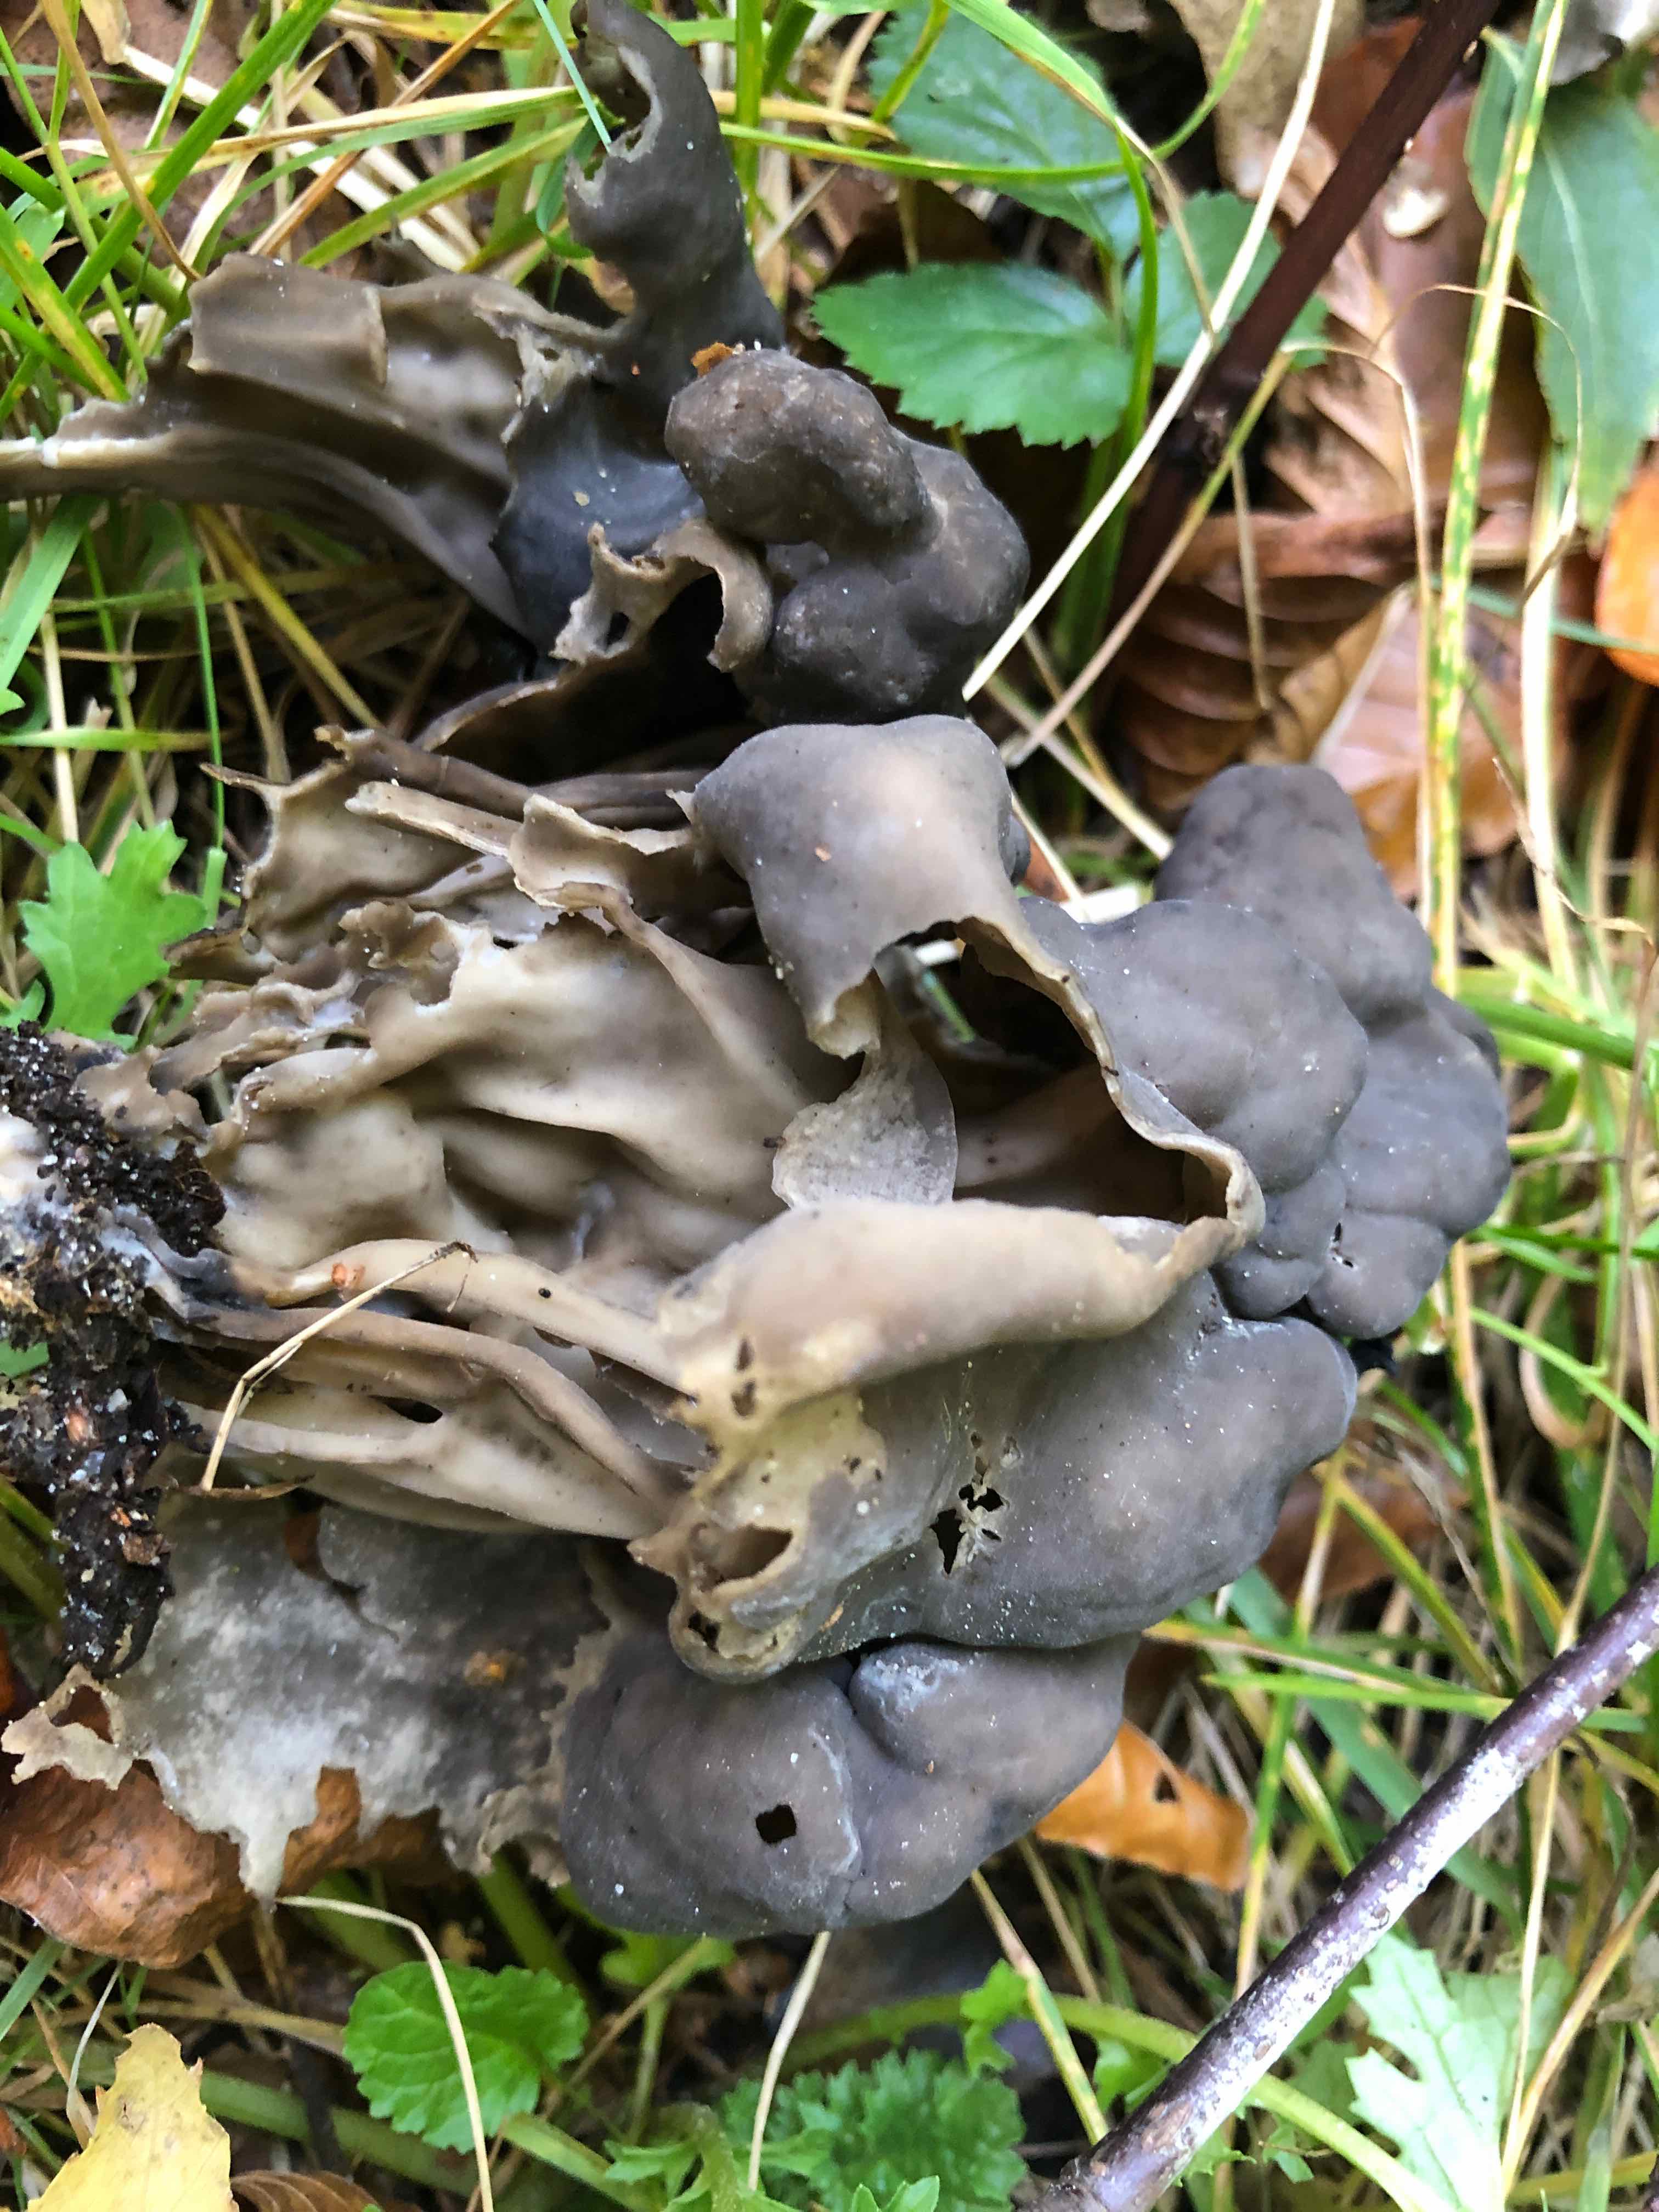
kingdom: Fungi
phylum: Ascomycota
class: Pezizomycetes
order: Pezizales
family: Helvellaceae
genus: Helvella
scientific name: Helvella lacunosa
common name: grubet foldhat
